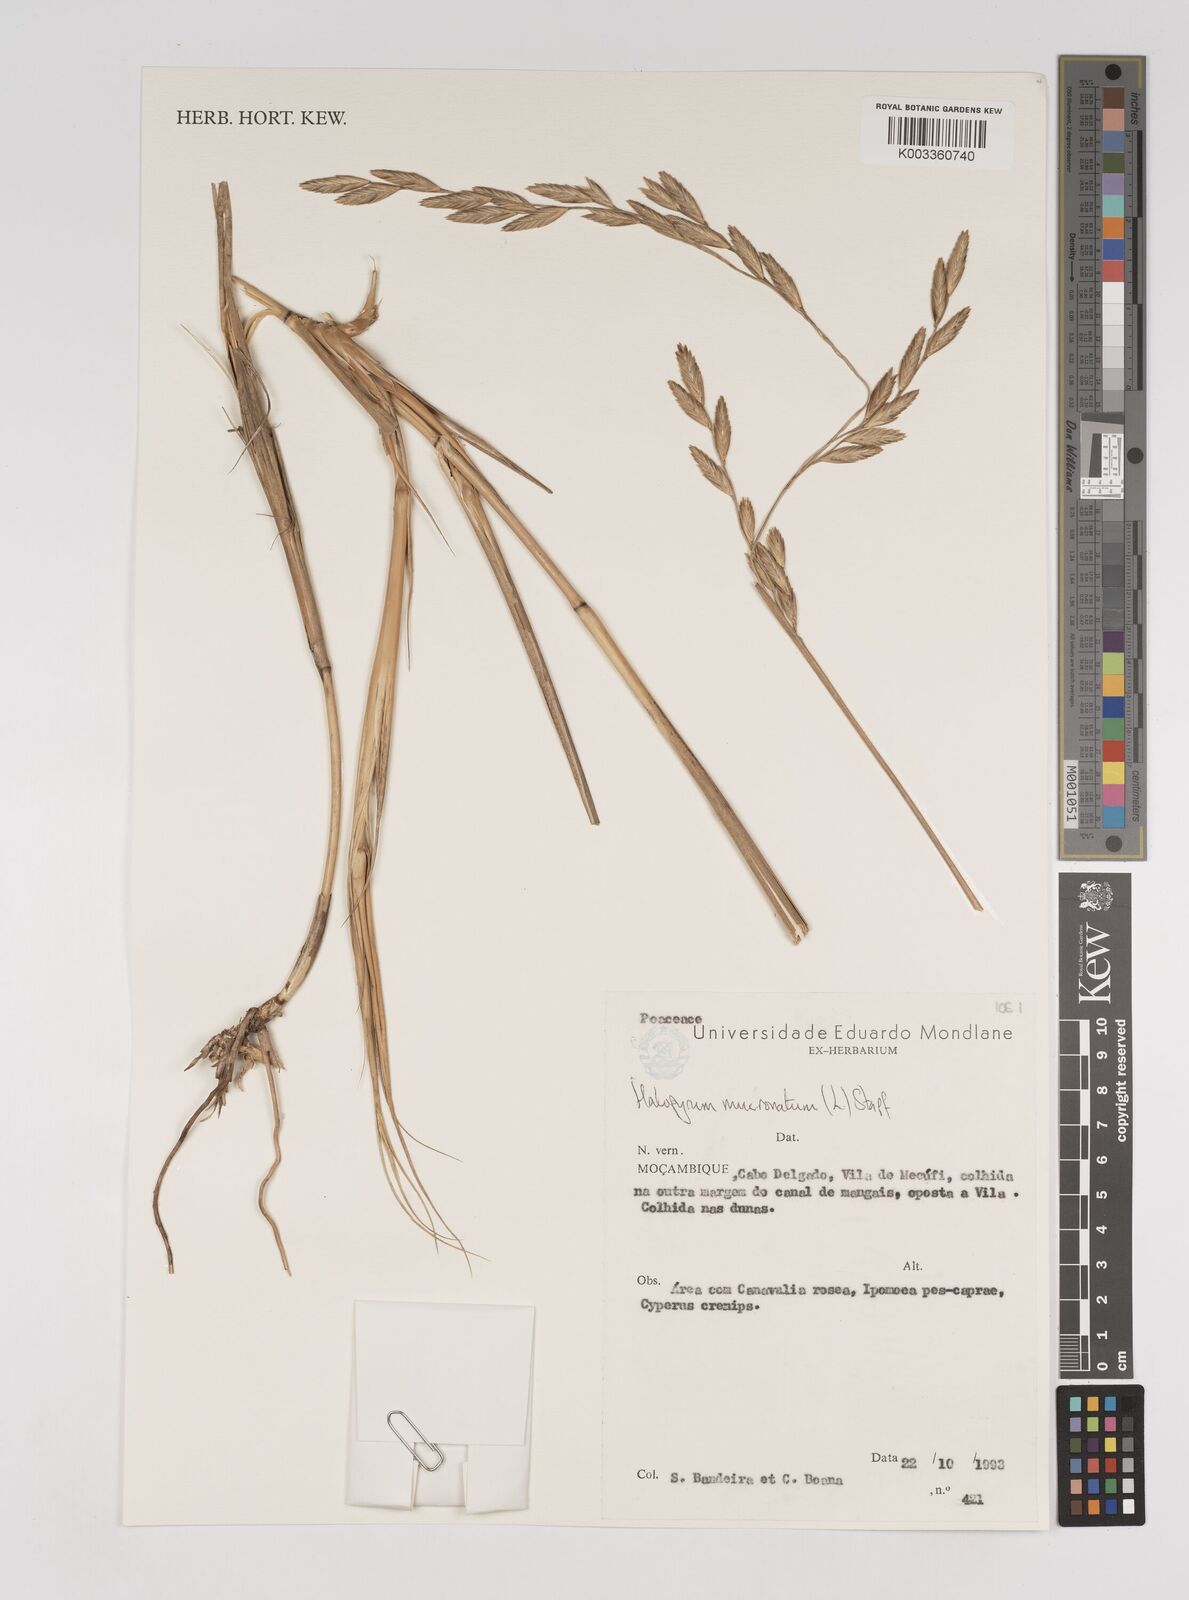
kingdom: Plantae
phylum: Tracheophyta
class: Liliopsida
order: Poales
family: Poaceae
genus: Halopyrum
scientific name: Halopyrum mucronatum
